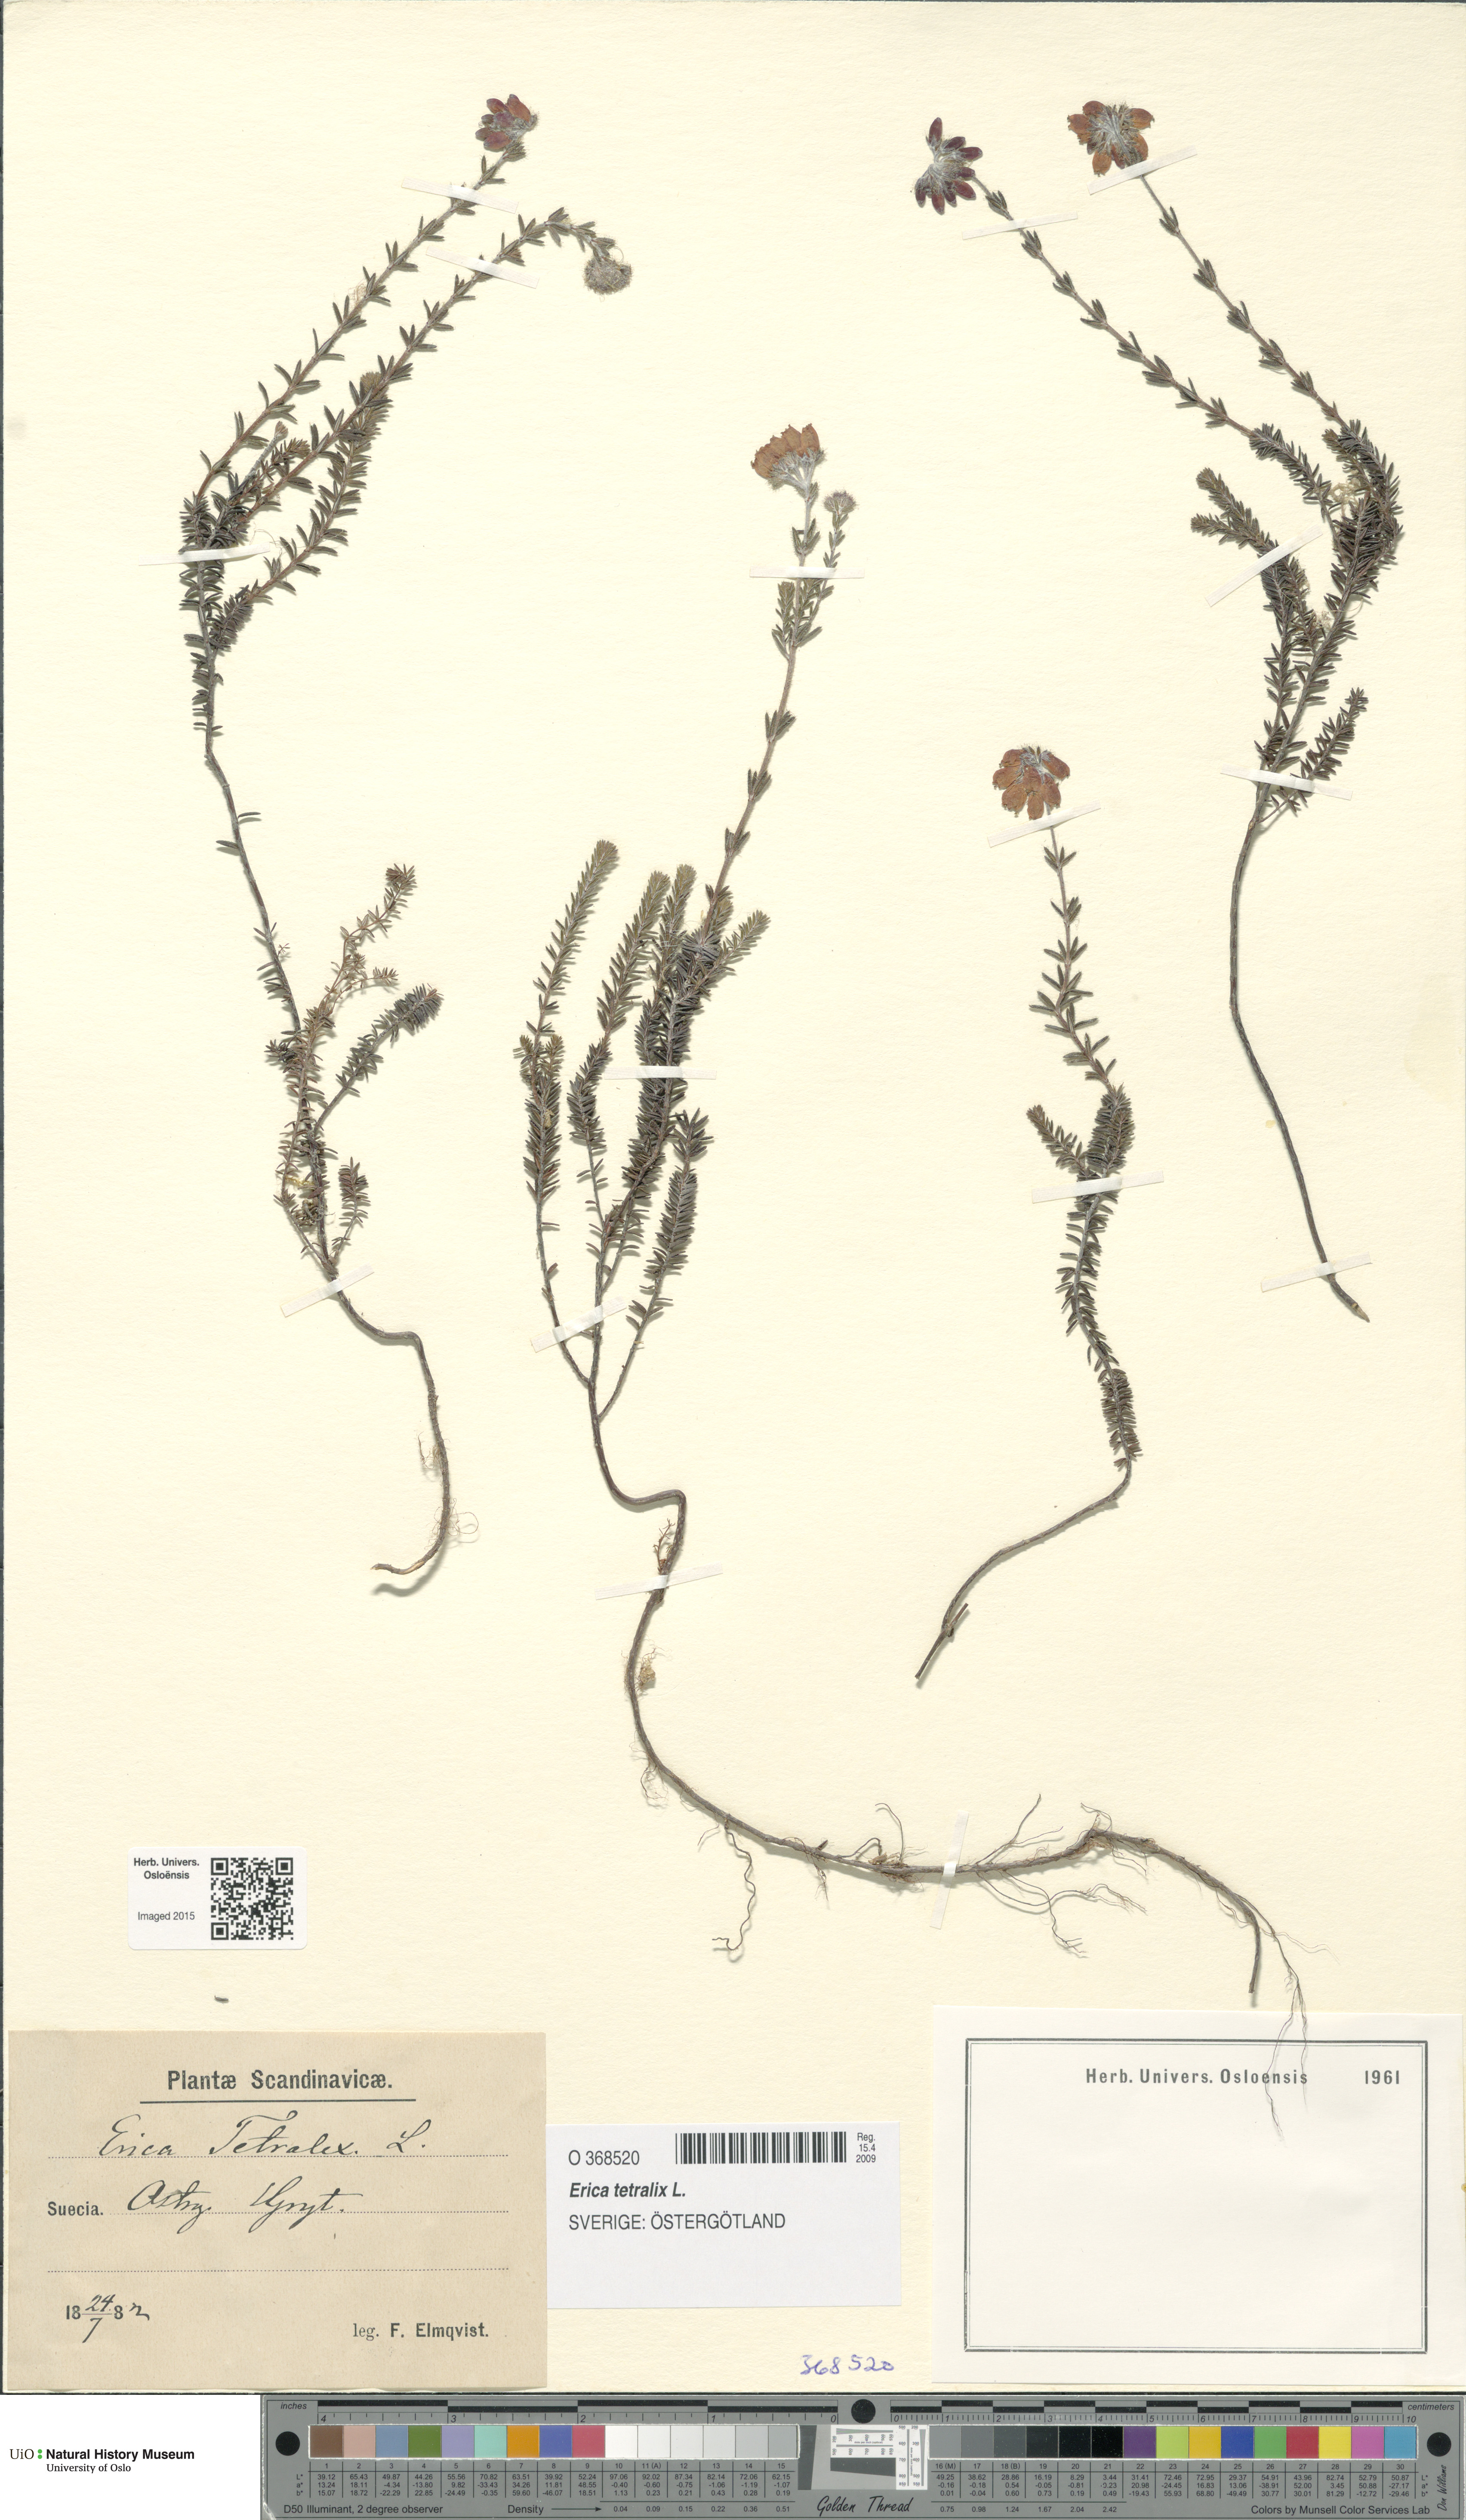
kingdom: Plantae
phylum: Tracheophyta
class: Magnoliopsida
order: Ericales
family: Ericaceae
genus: Erica
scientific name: Erica tetralix
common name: Cross-leaved heath
